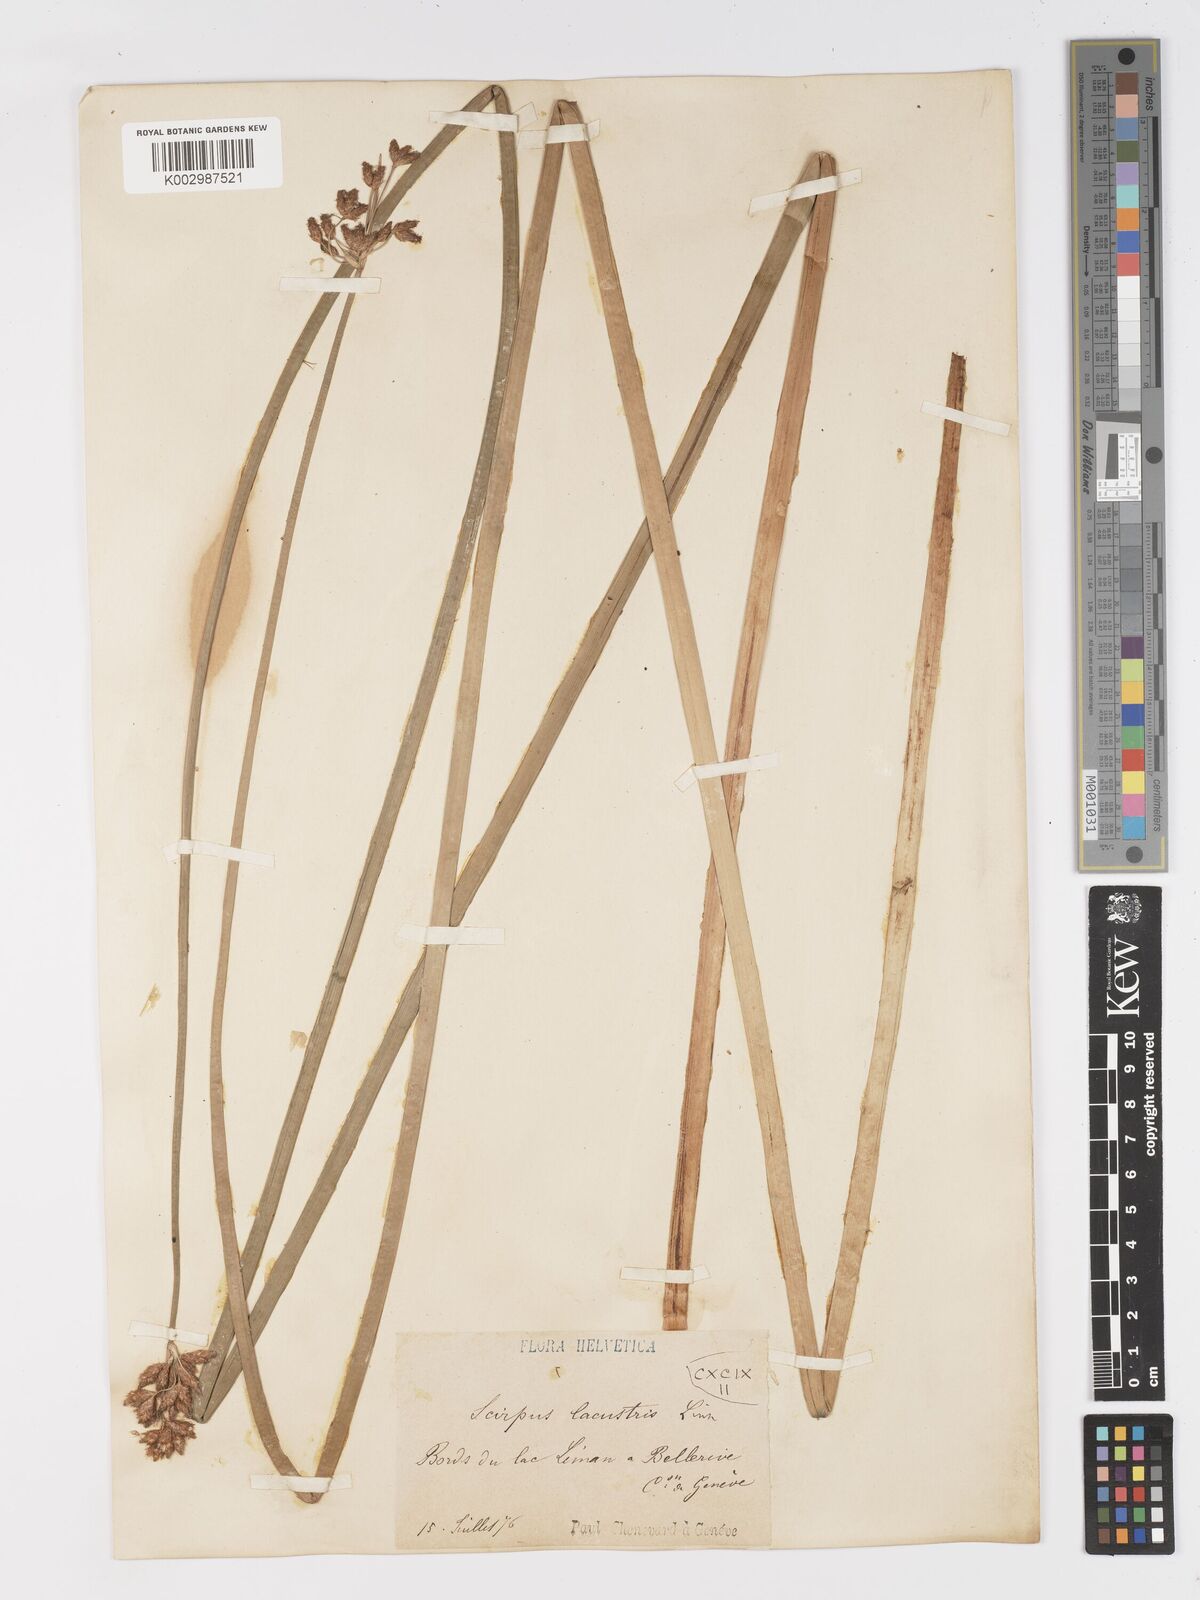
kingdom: Plantae
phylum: Tracheophyta
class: Liliopsida
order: Poales
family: Cyperaceae
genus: Schoenoplectus
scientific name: Schoenoplectus lacustris
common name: Common club-rush
